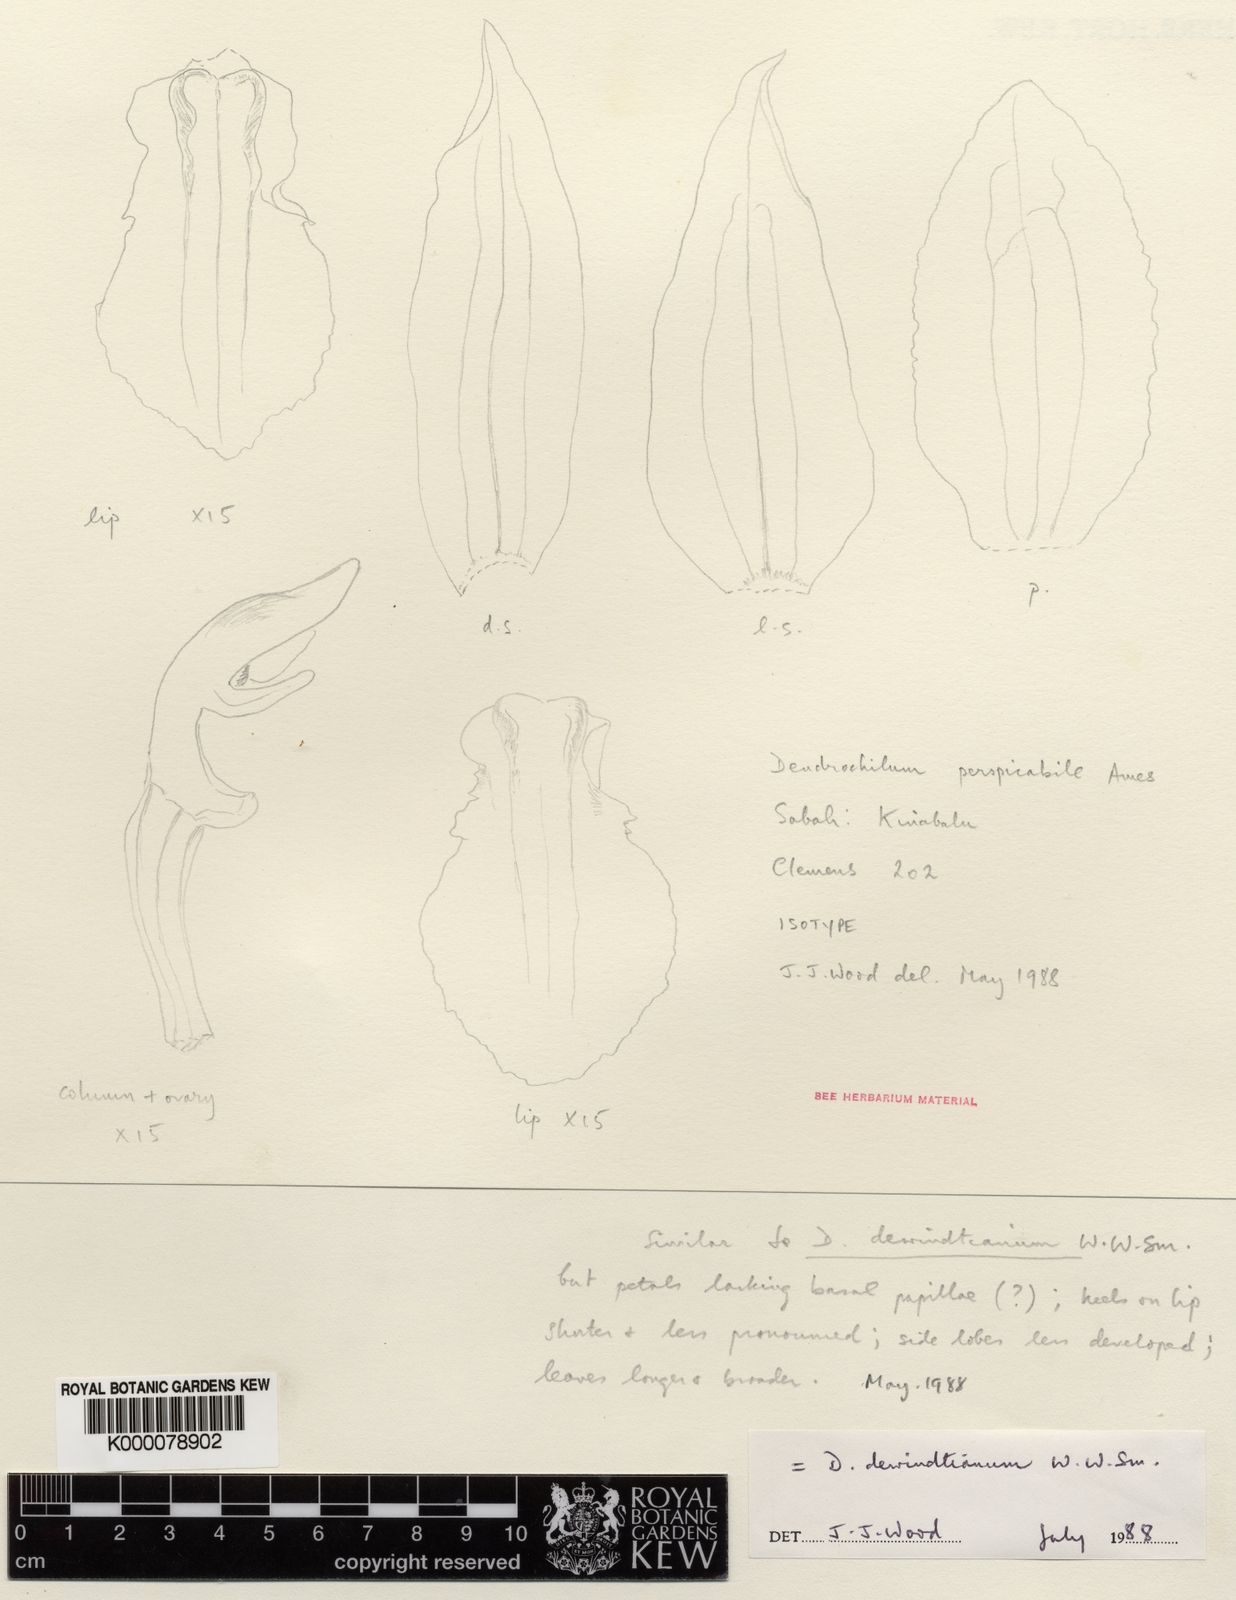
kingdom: Plantae
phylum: Tracheophyta
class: Liliopsida
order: Asparagales
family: Orchidaceae
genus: Coelogyne
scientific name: Coelogyne dewindtiana
